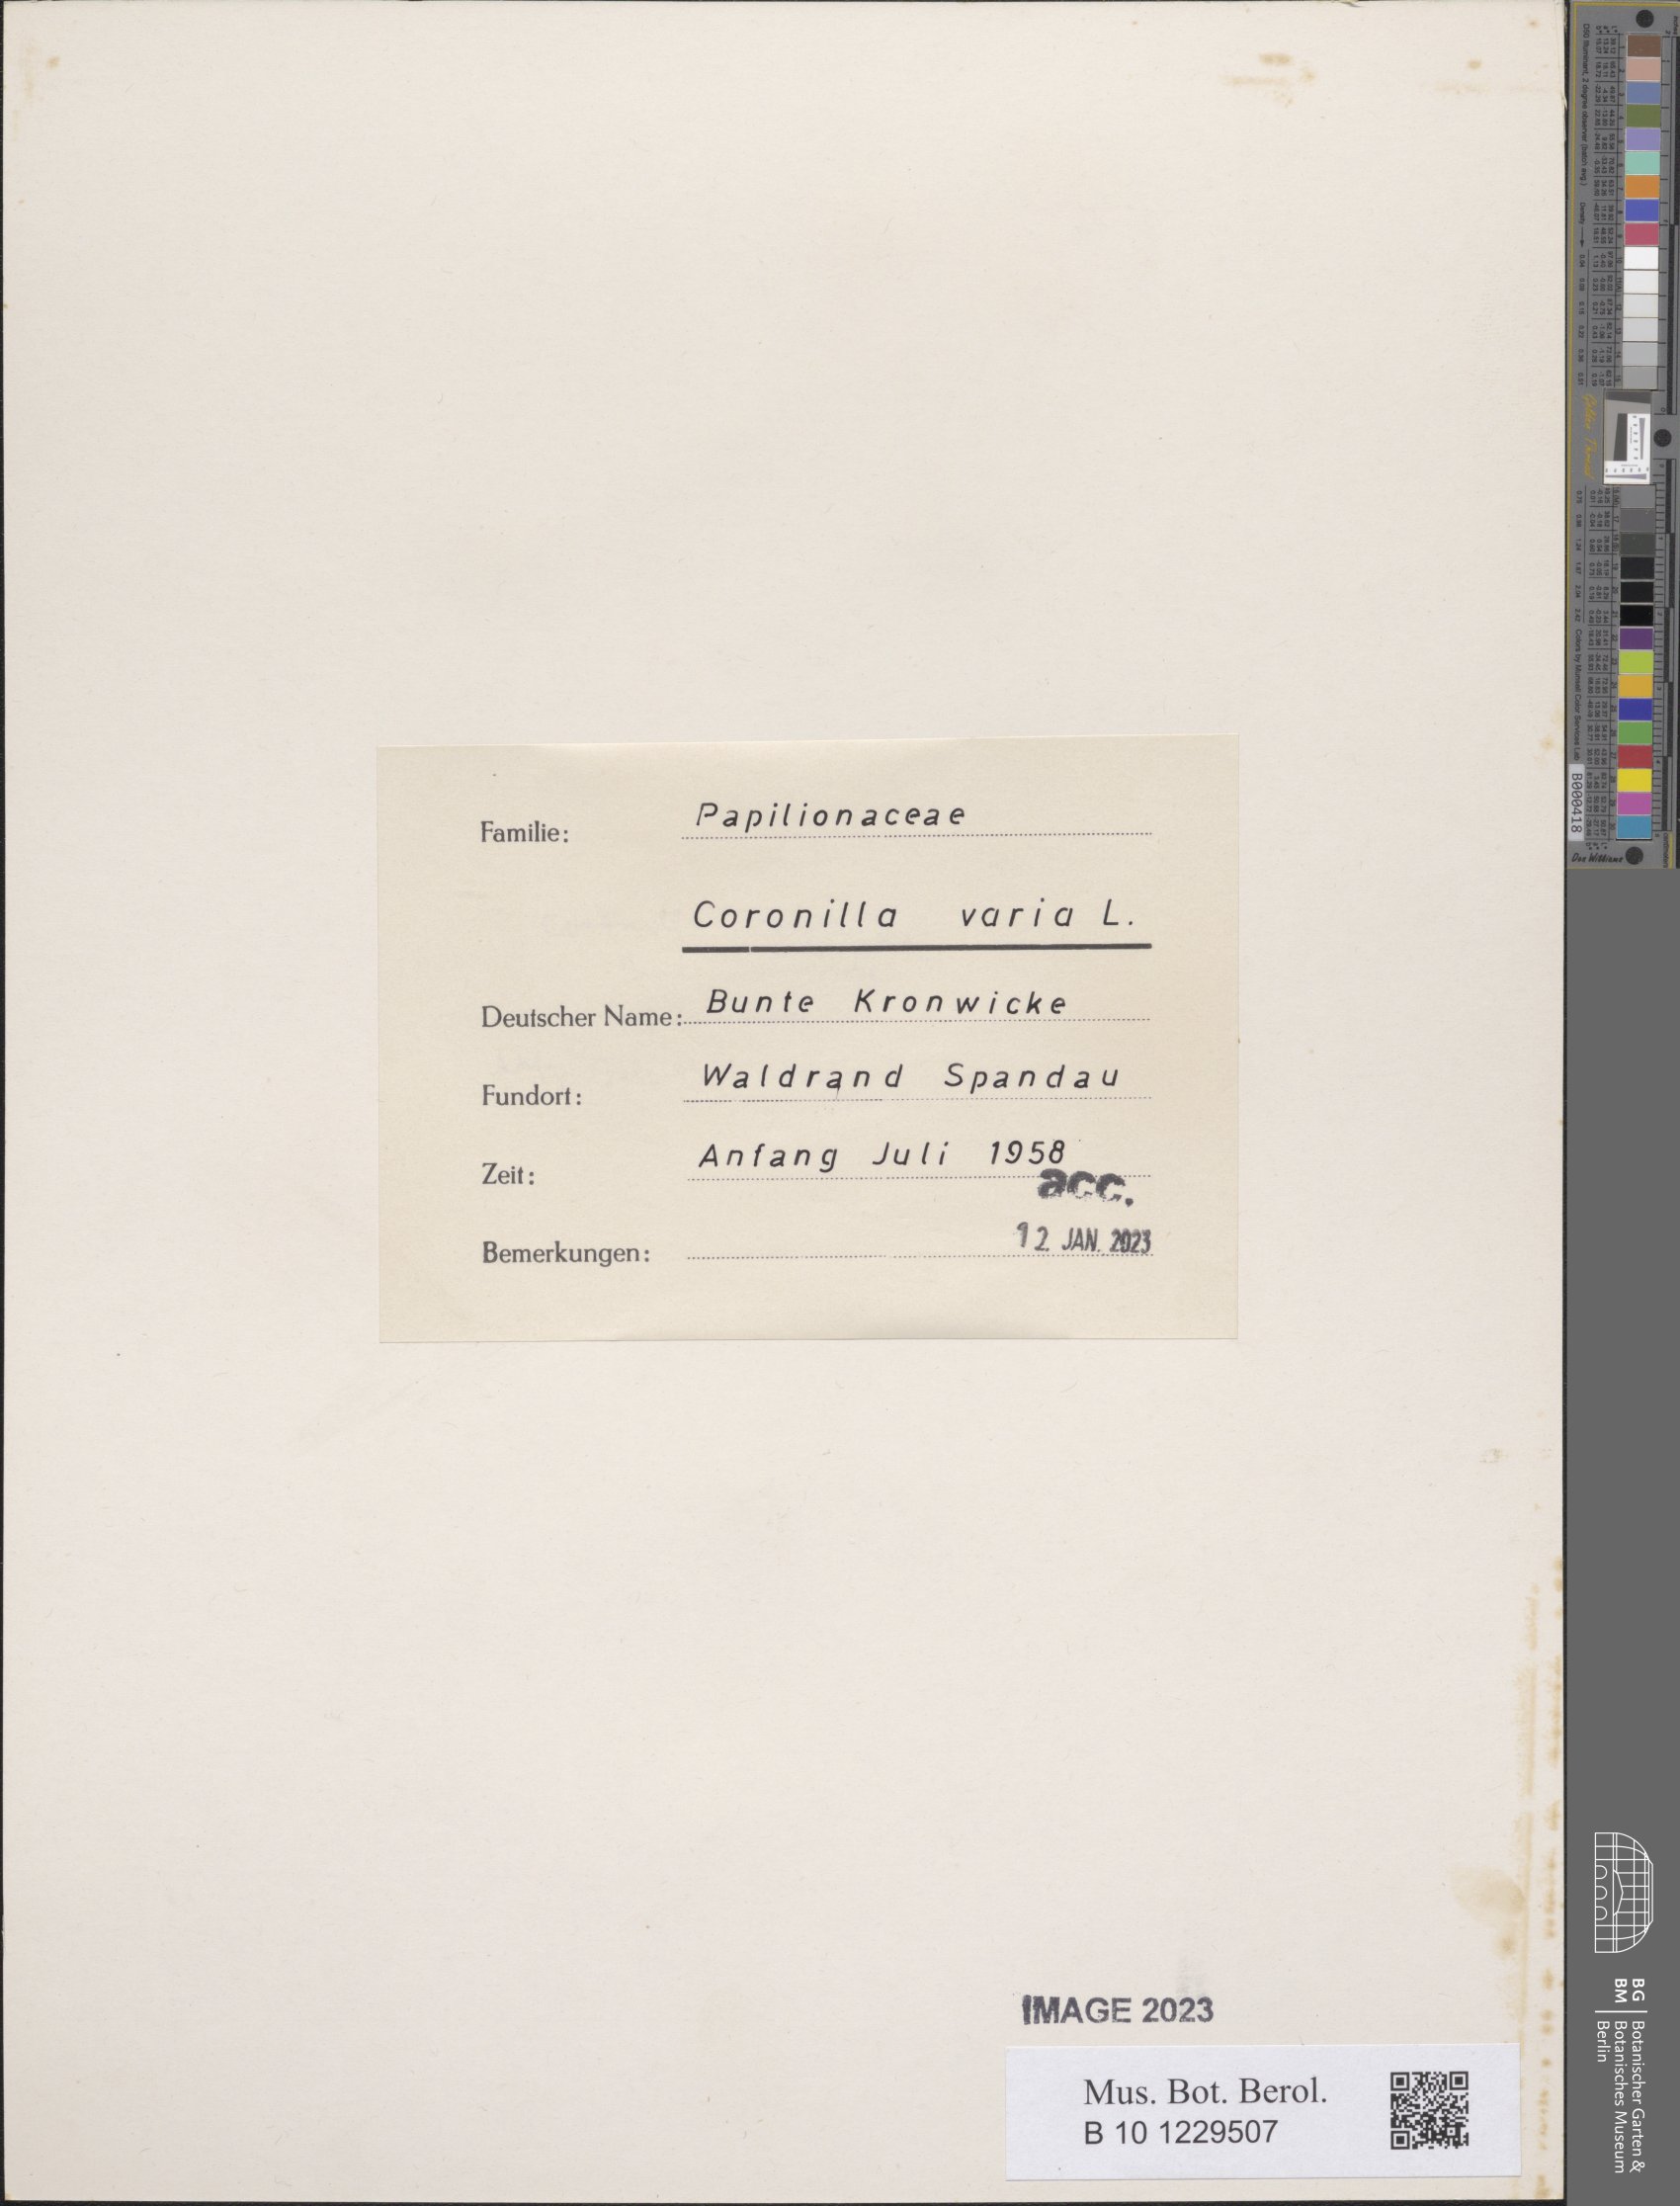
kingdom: Plantae
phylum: Tracheophyta
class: Magnoliopsida
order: Fabales
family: Fabaceae
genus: Coronilla
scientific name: Coronilla varia
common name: Crownvetch
